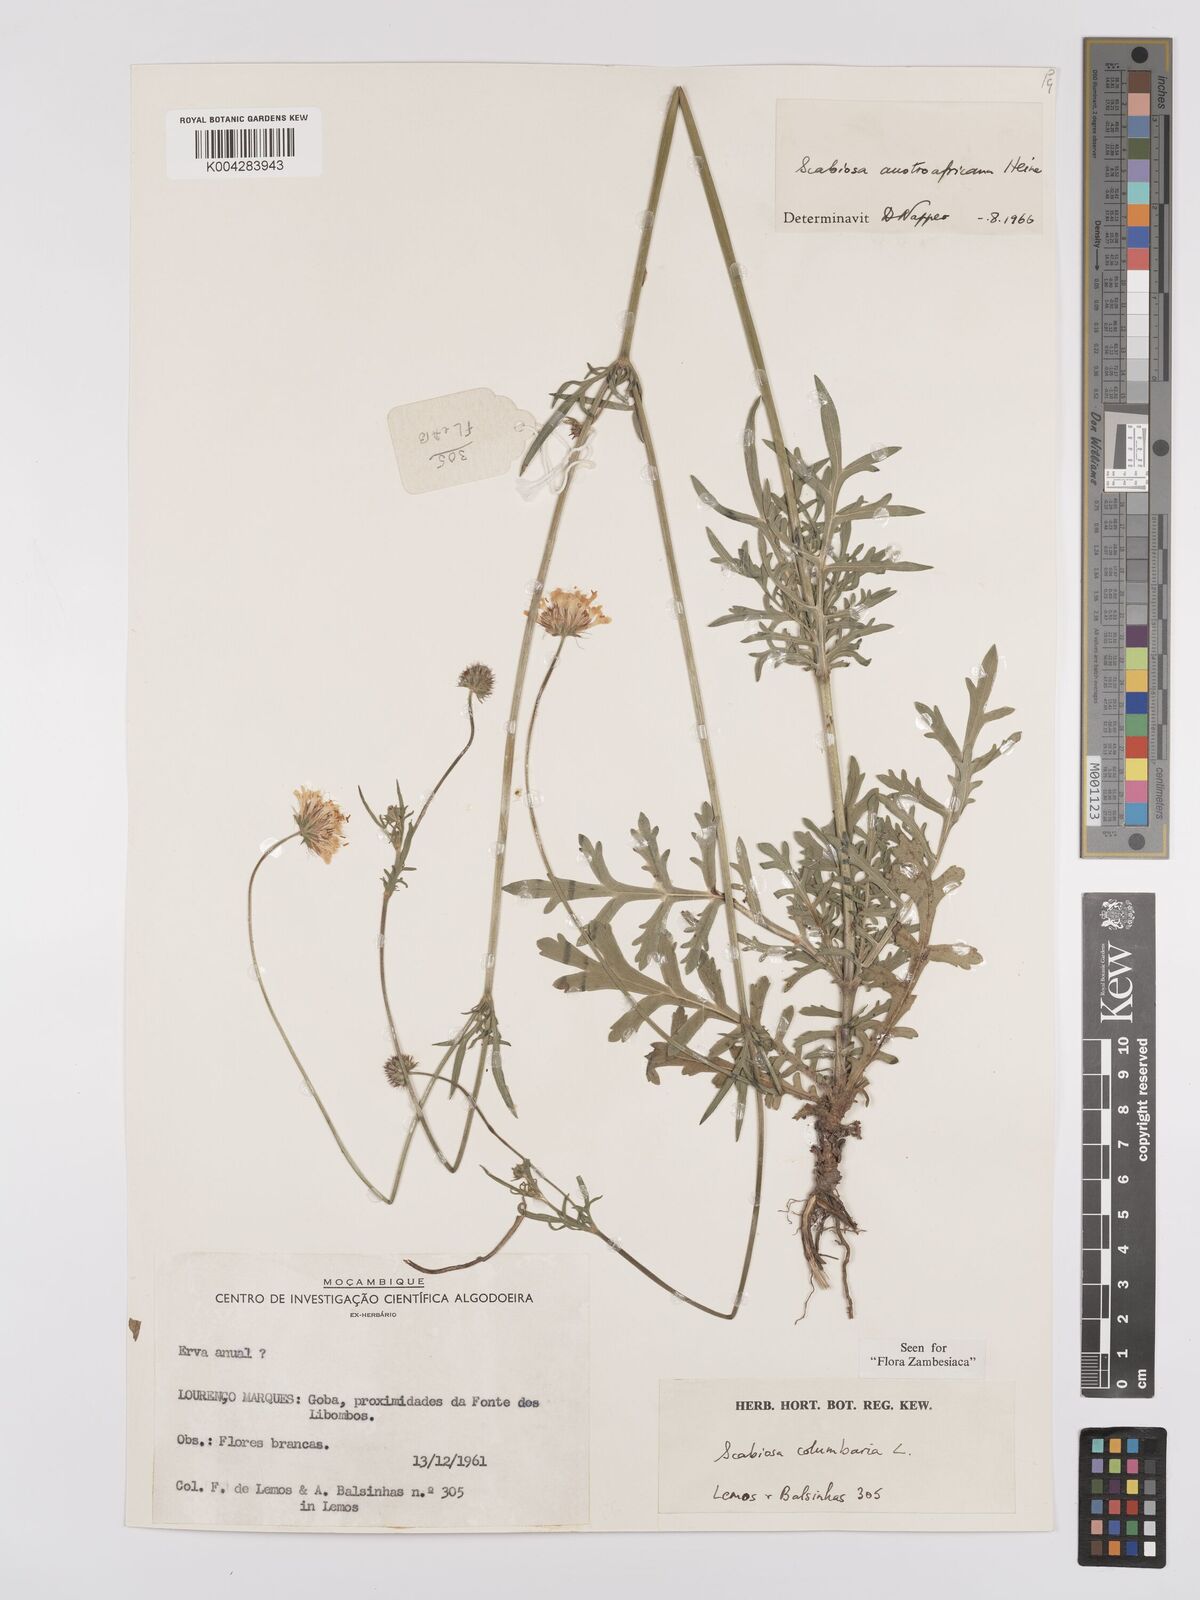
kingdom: Plantae
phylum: Tracheophyta
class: Magnoliopsida
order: Dipsacales
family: Caprifoliaceae
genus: Scabiosa
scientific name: Scabiosa austroafricana
